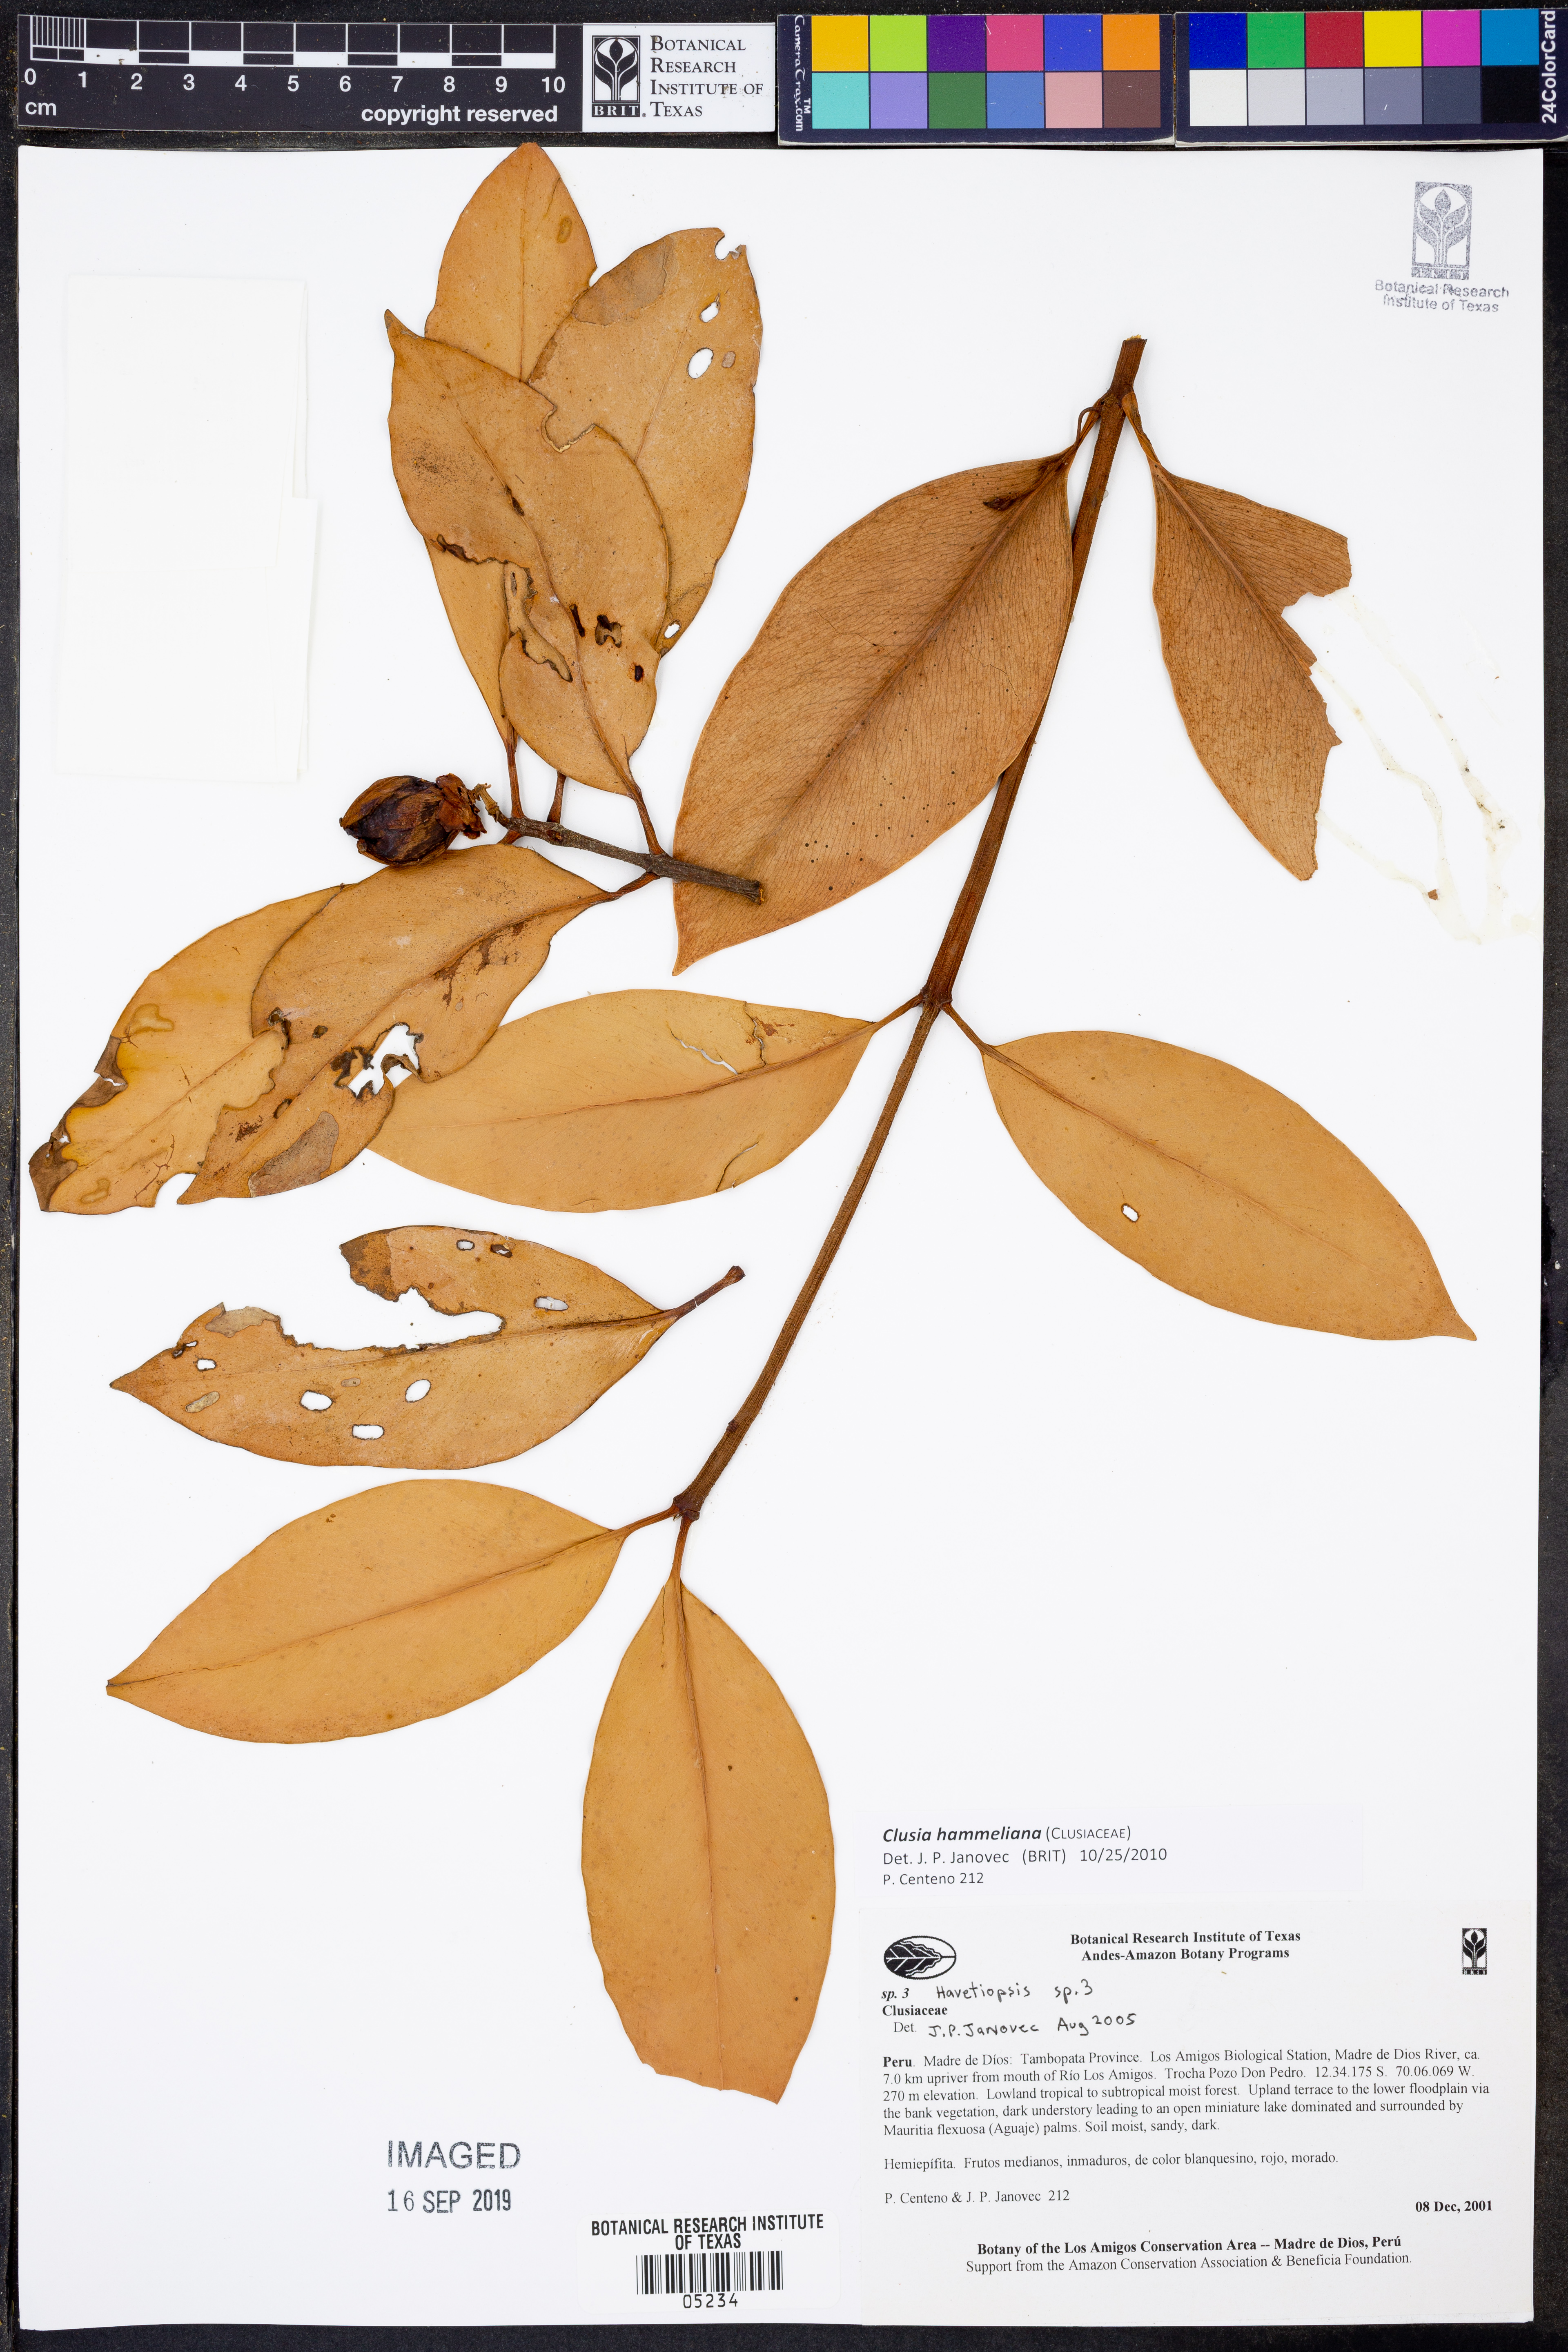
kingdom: Plantae
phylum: Tracheophyta
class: Magnoliopsida
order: Malpighiales
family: Clusiaceae
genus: Clusia
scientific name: Clusia hammeliana
